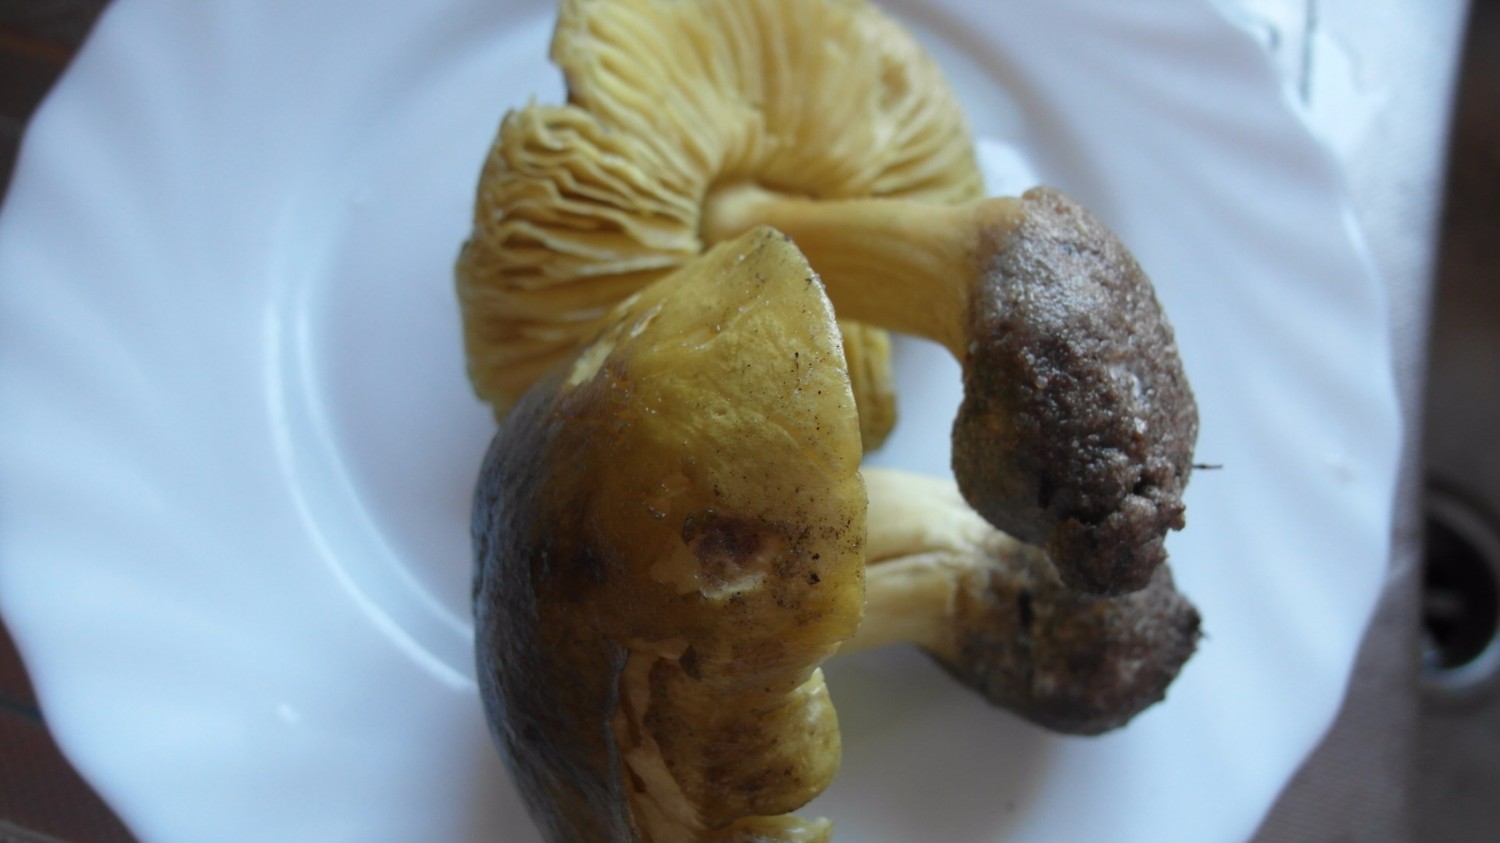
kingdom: Fungi
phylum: Basidiomycota
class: Agaricomycetes
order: Agaricales
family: Tricholomataceae
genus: Tricholoma
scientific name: Tricholoma equestre
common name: ægte ridderhat
